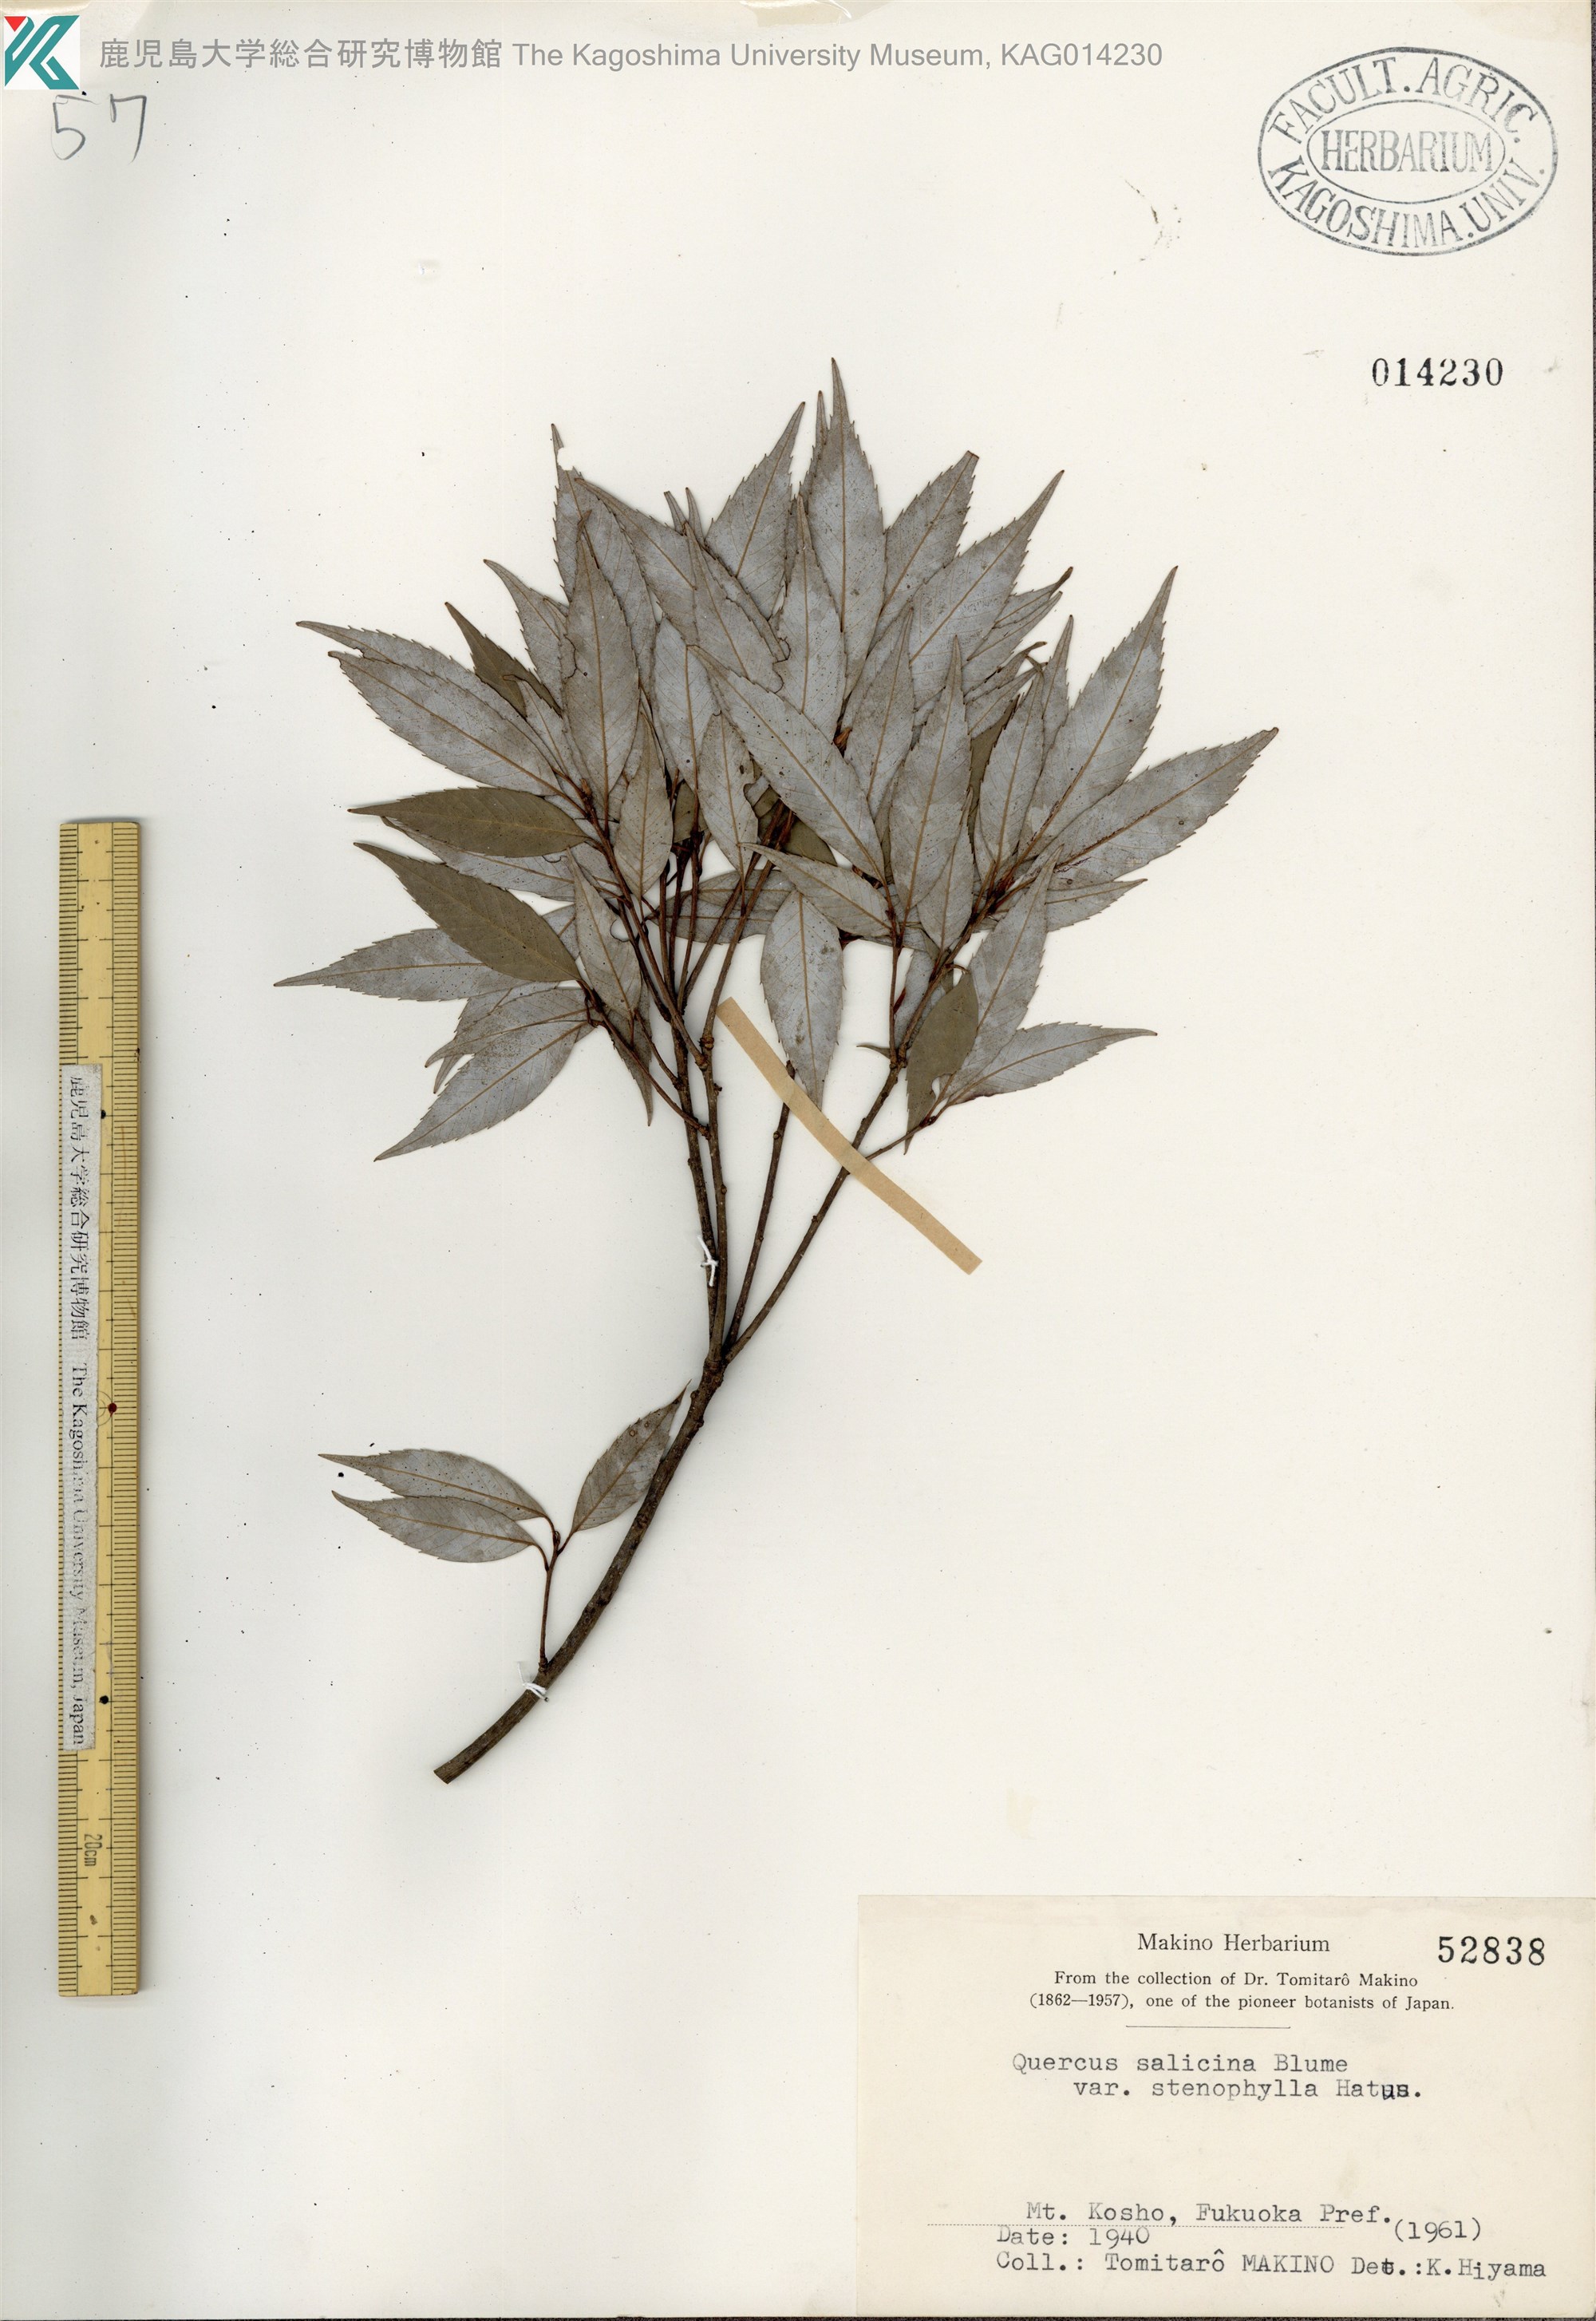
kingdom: Plantae
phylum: Tracheophyta
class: Magnoliopsida
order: Fagales
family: Fagaceae
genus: Quercus
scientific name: Quercus salicina
